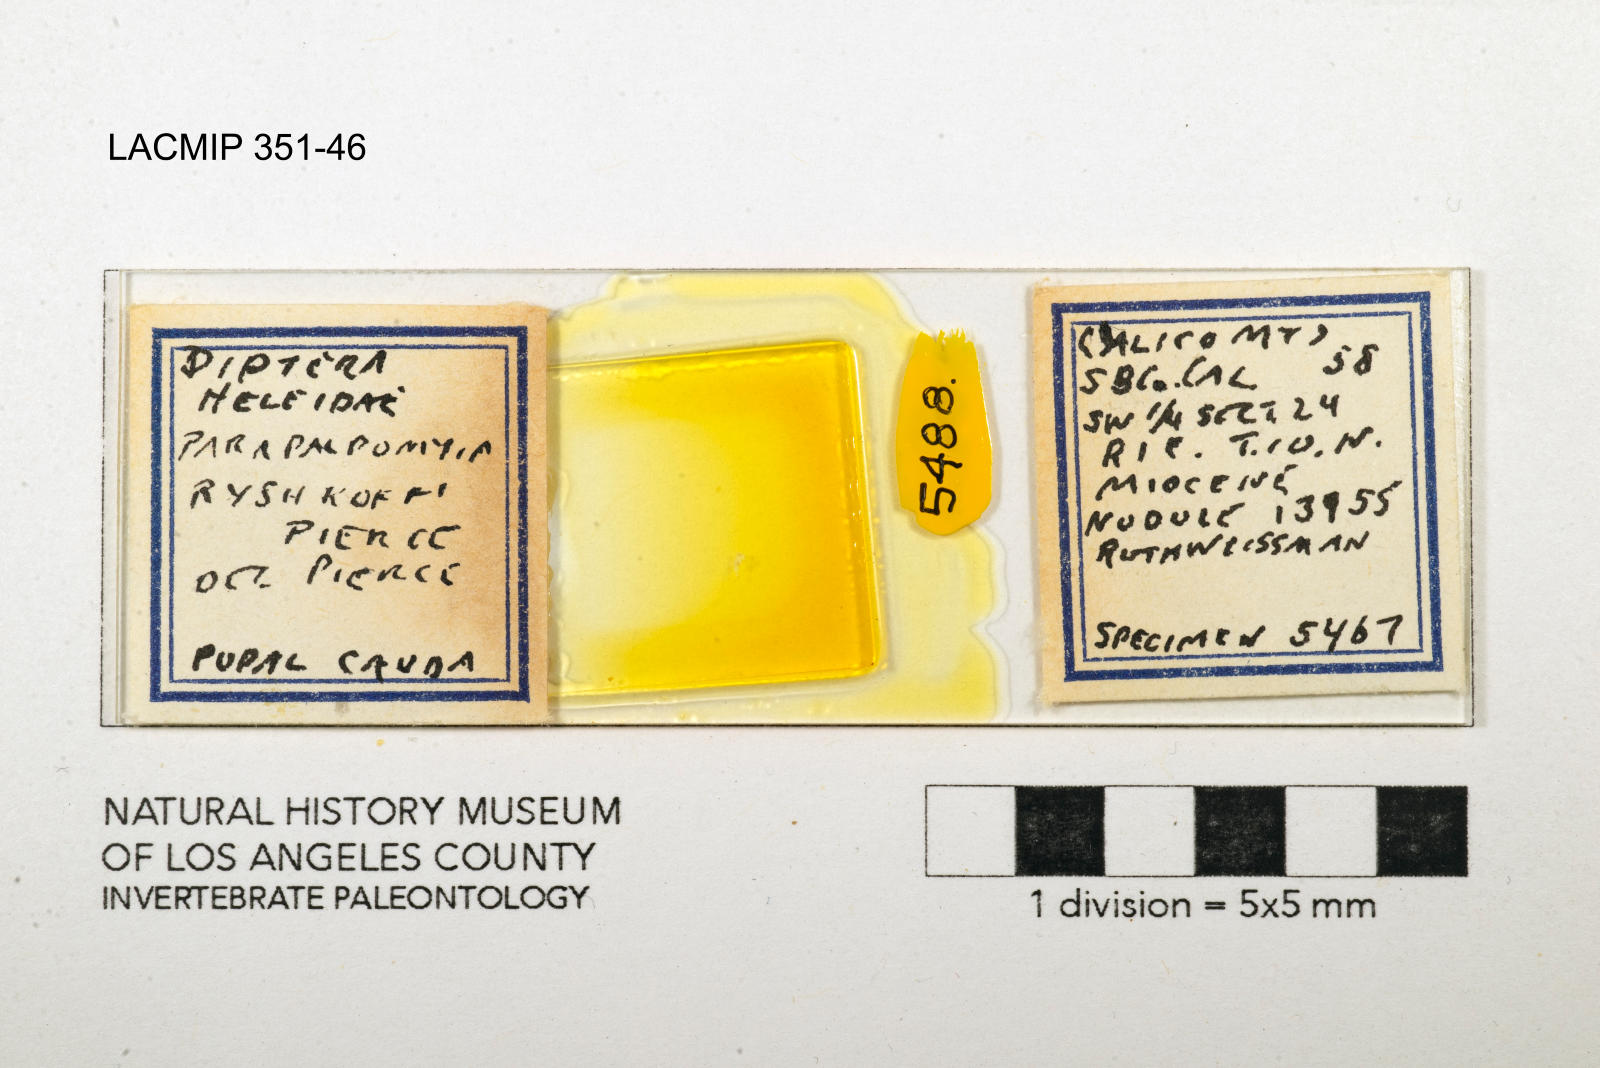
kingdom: Animalia
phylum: Arthropoda
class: Insecta
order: Diptera
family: Ceratopogonidae
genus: Palpomyia
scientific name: Palpomyia ryshkoffi
